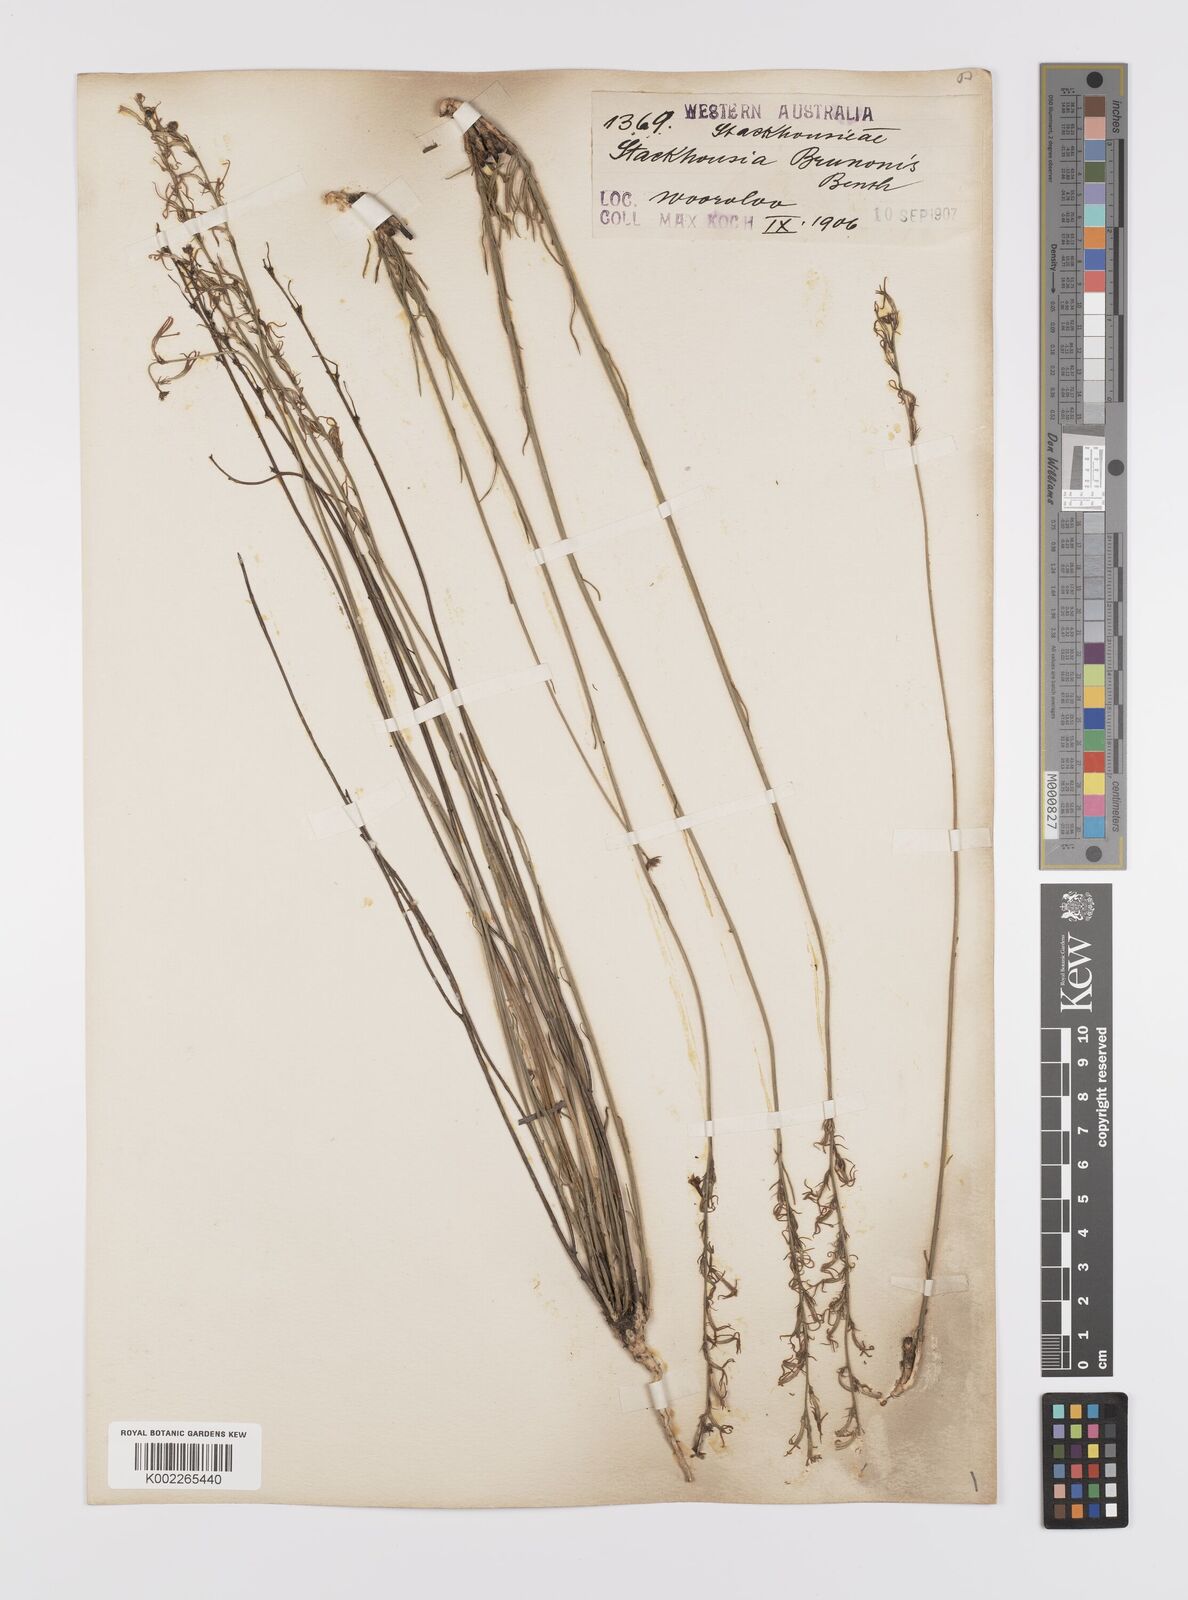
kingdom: Plantae
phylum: Tracheophyta
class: Magnoliopsida
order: Celastrales
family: Celastraceae
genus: Tripterococcus
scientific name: Tripterococcus brunonis
